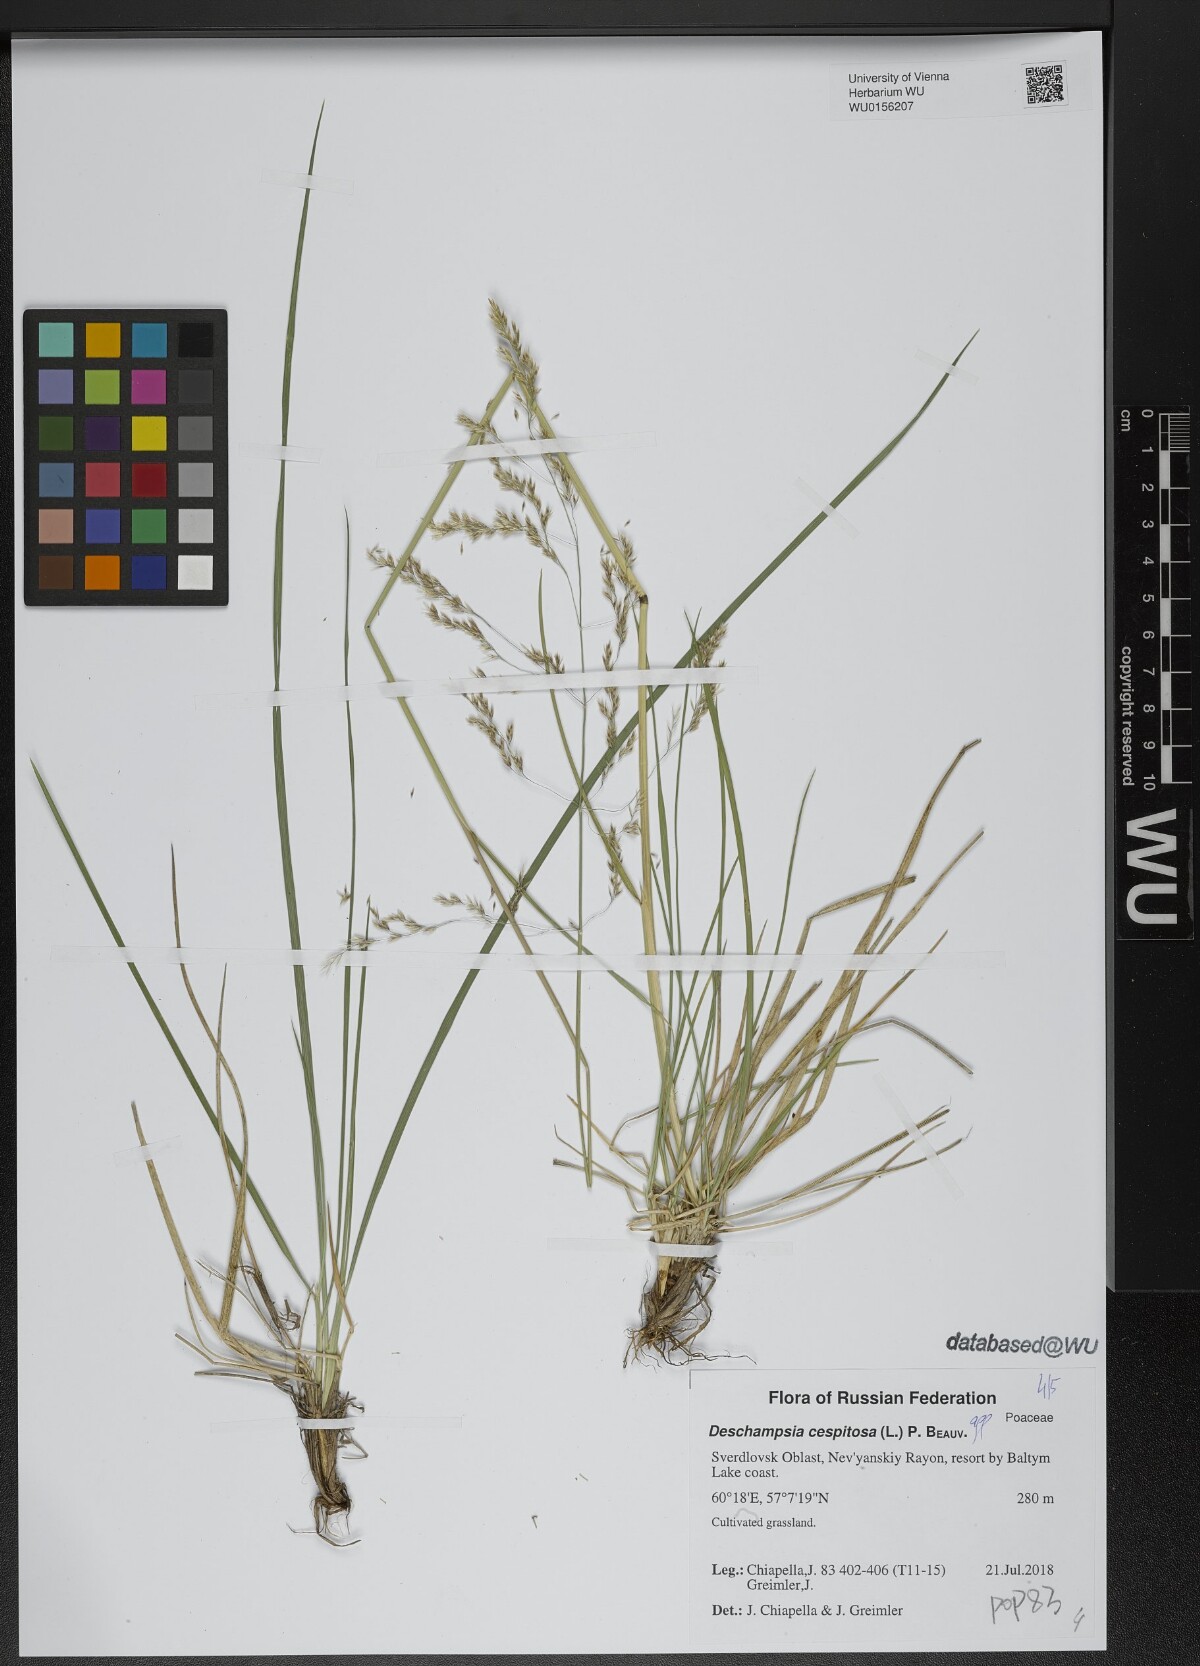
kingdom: Plantae
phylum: Tracheophyta
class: Liliopsida
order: Poales
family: Poaceae
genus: Deschampsia
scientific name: Deschampsia cespitosa
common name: Tufted hair-grass
